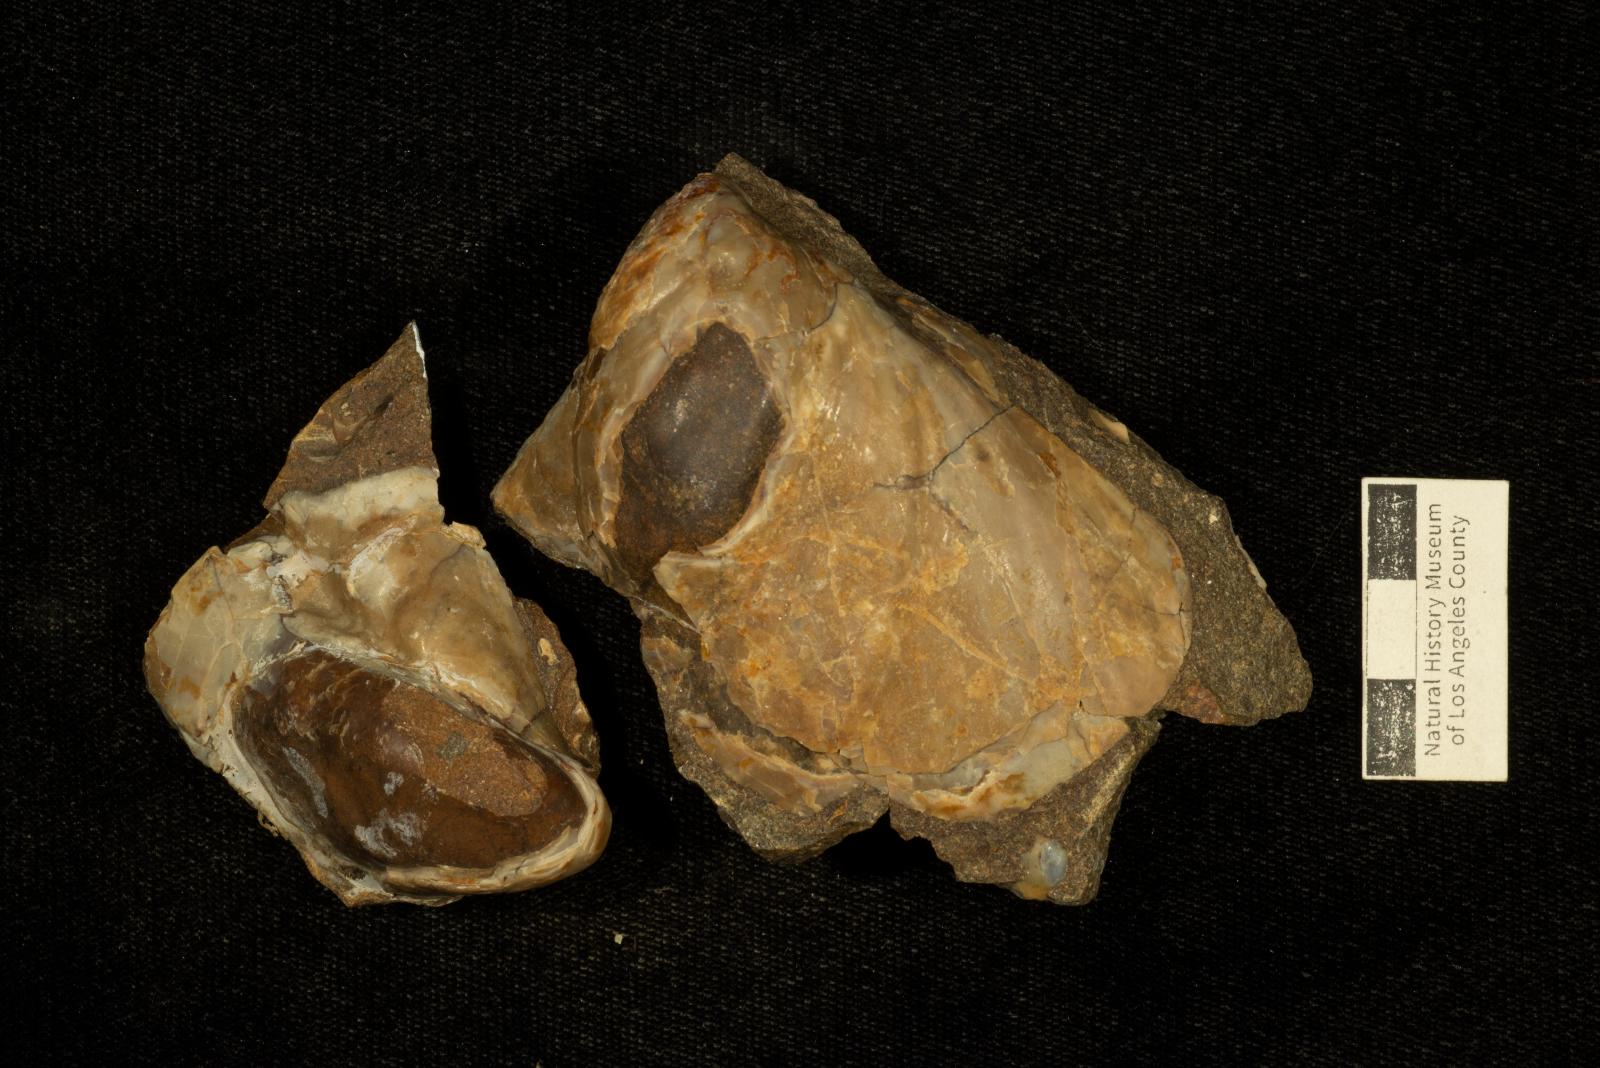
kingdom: Animalia
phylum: Mollusca
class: Bivalvia
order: Myalinida
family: Inoceramidae
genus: Inoceramus
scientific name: Inoceramus cordiformis
